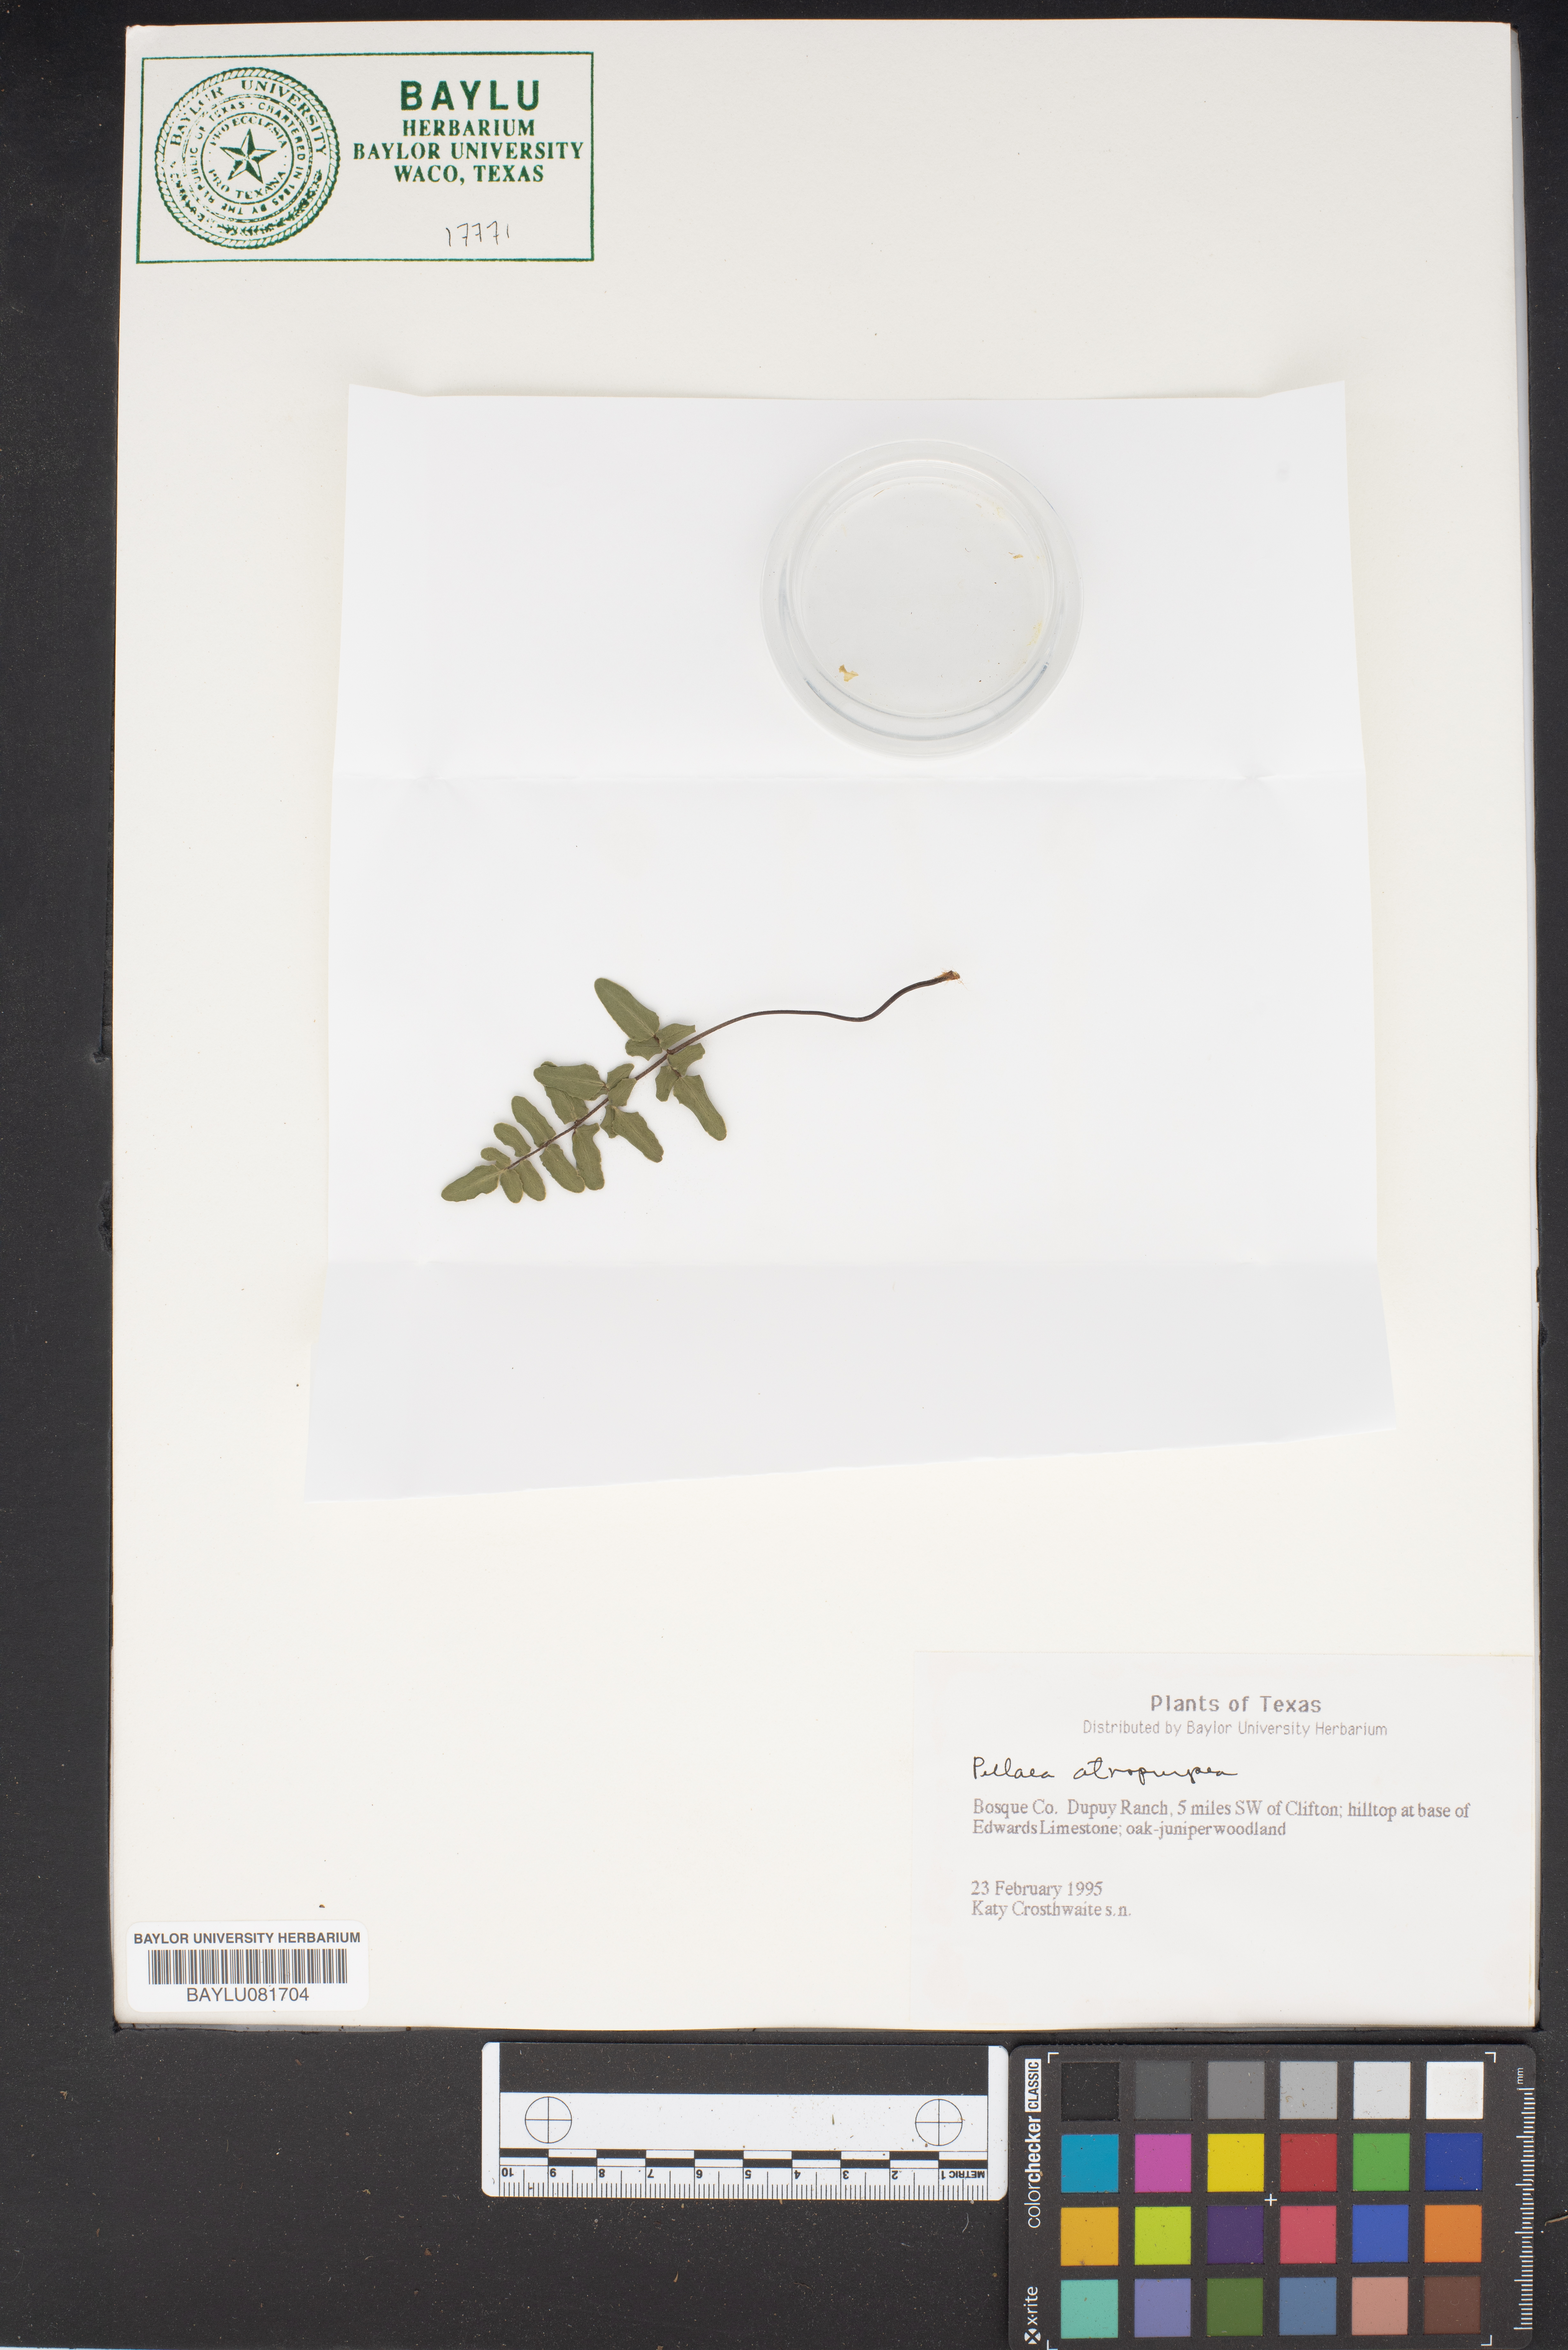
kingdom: Plantae
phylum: Tracheophyta
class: Polypodiopsida
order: Polypodiales
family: Pteridaceae
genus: Pellaea
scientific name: Pellaea atropurpurea
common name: Hairy cliffbrake
